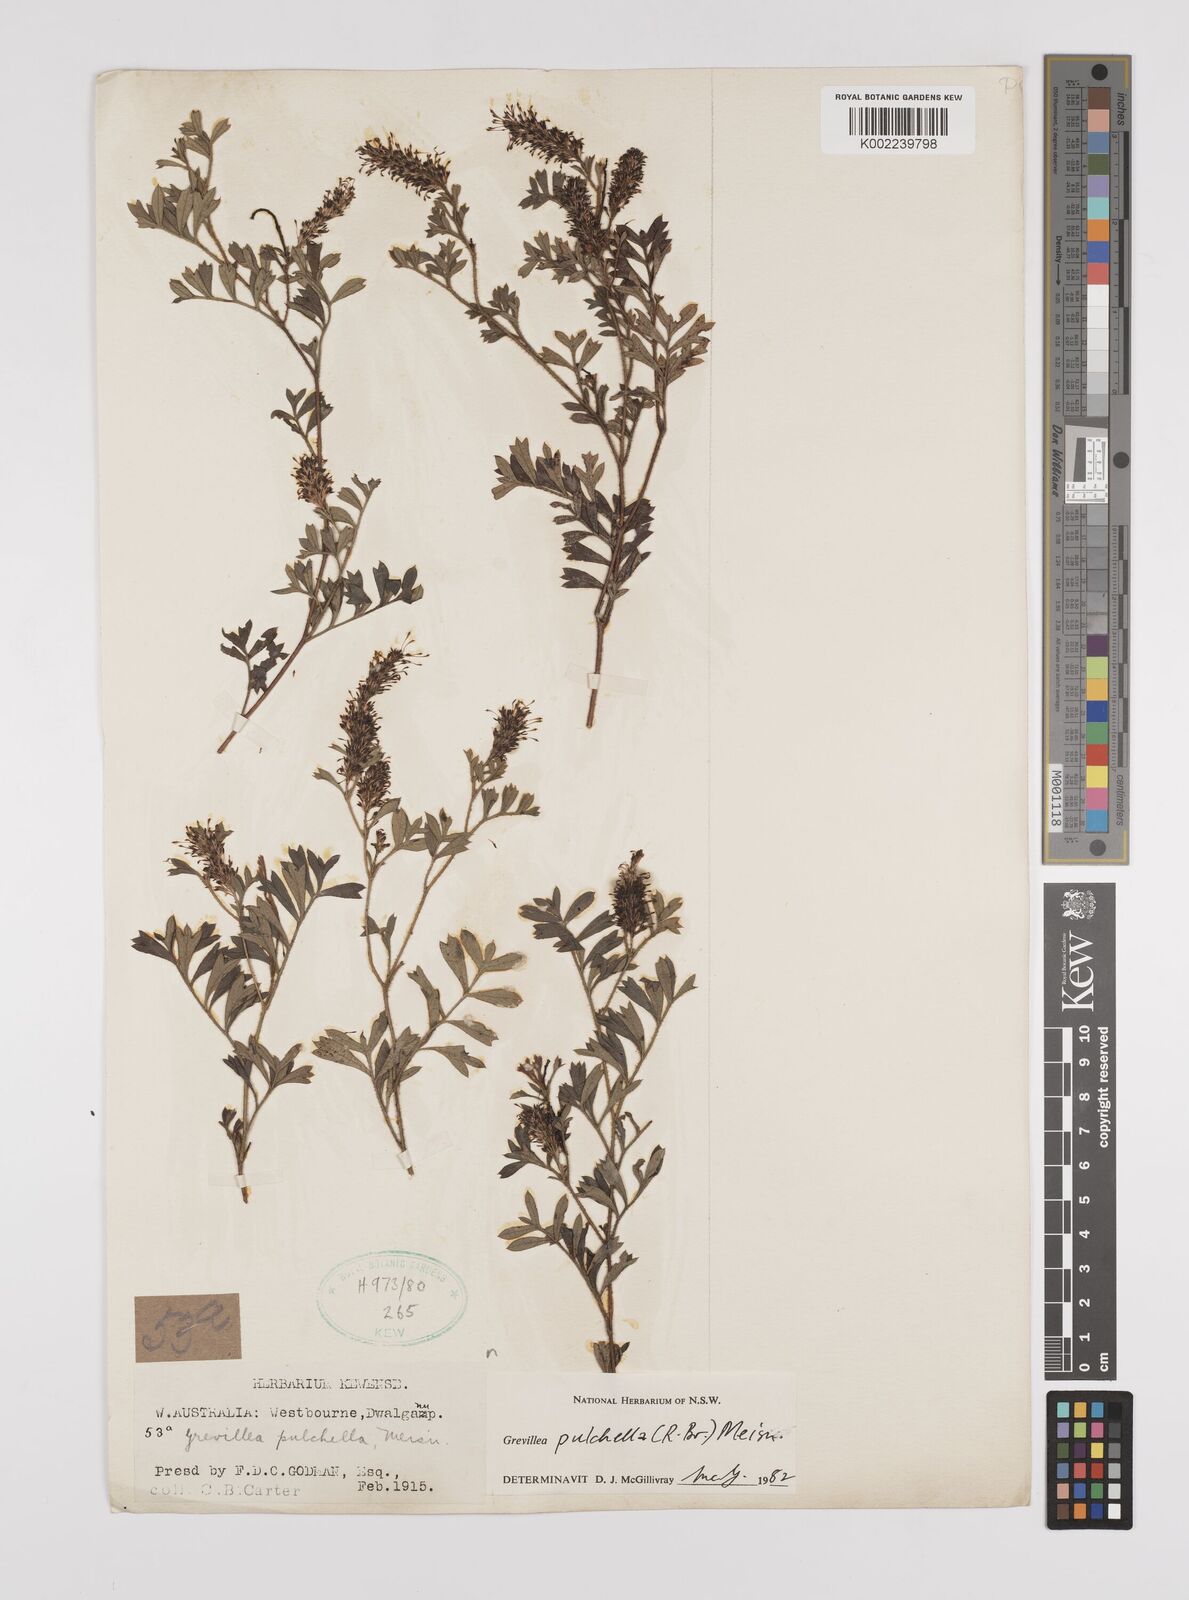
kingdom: Plantae
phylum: Tracheophyta
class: Magnoliopsida
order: Proteales
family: Proteaceae
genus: Grevillea
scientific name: Grevillea pulchella
